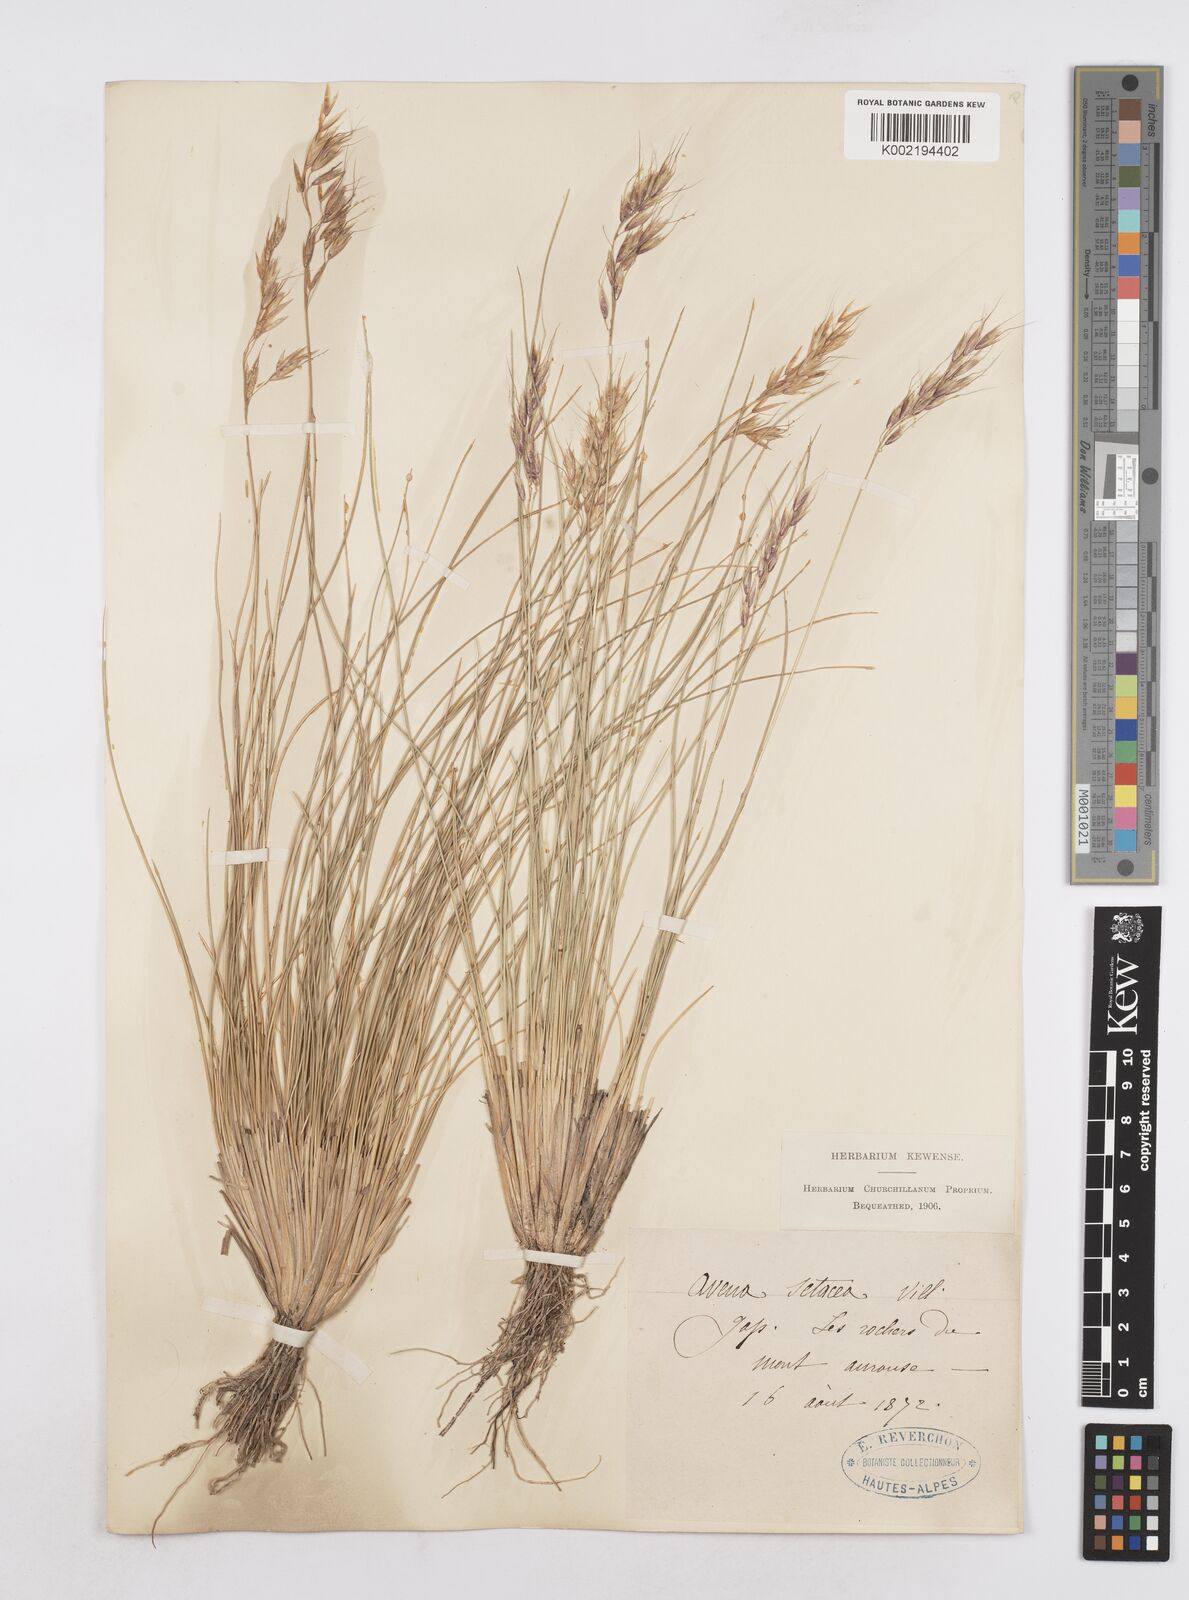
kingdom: Plantae
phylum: Tracheophyta
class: Liliopsida
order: Poales
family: Poaceae
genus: Helictotrichon
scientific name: Helictotrichon setaceum
